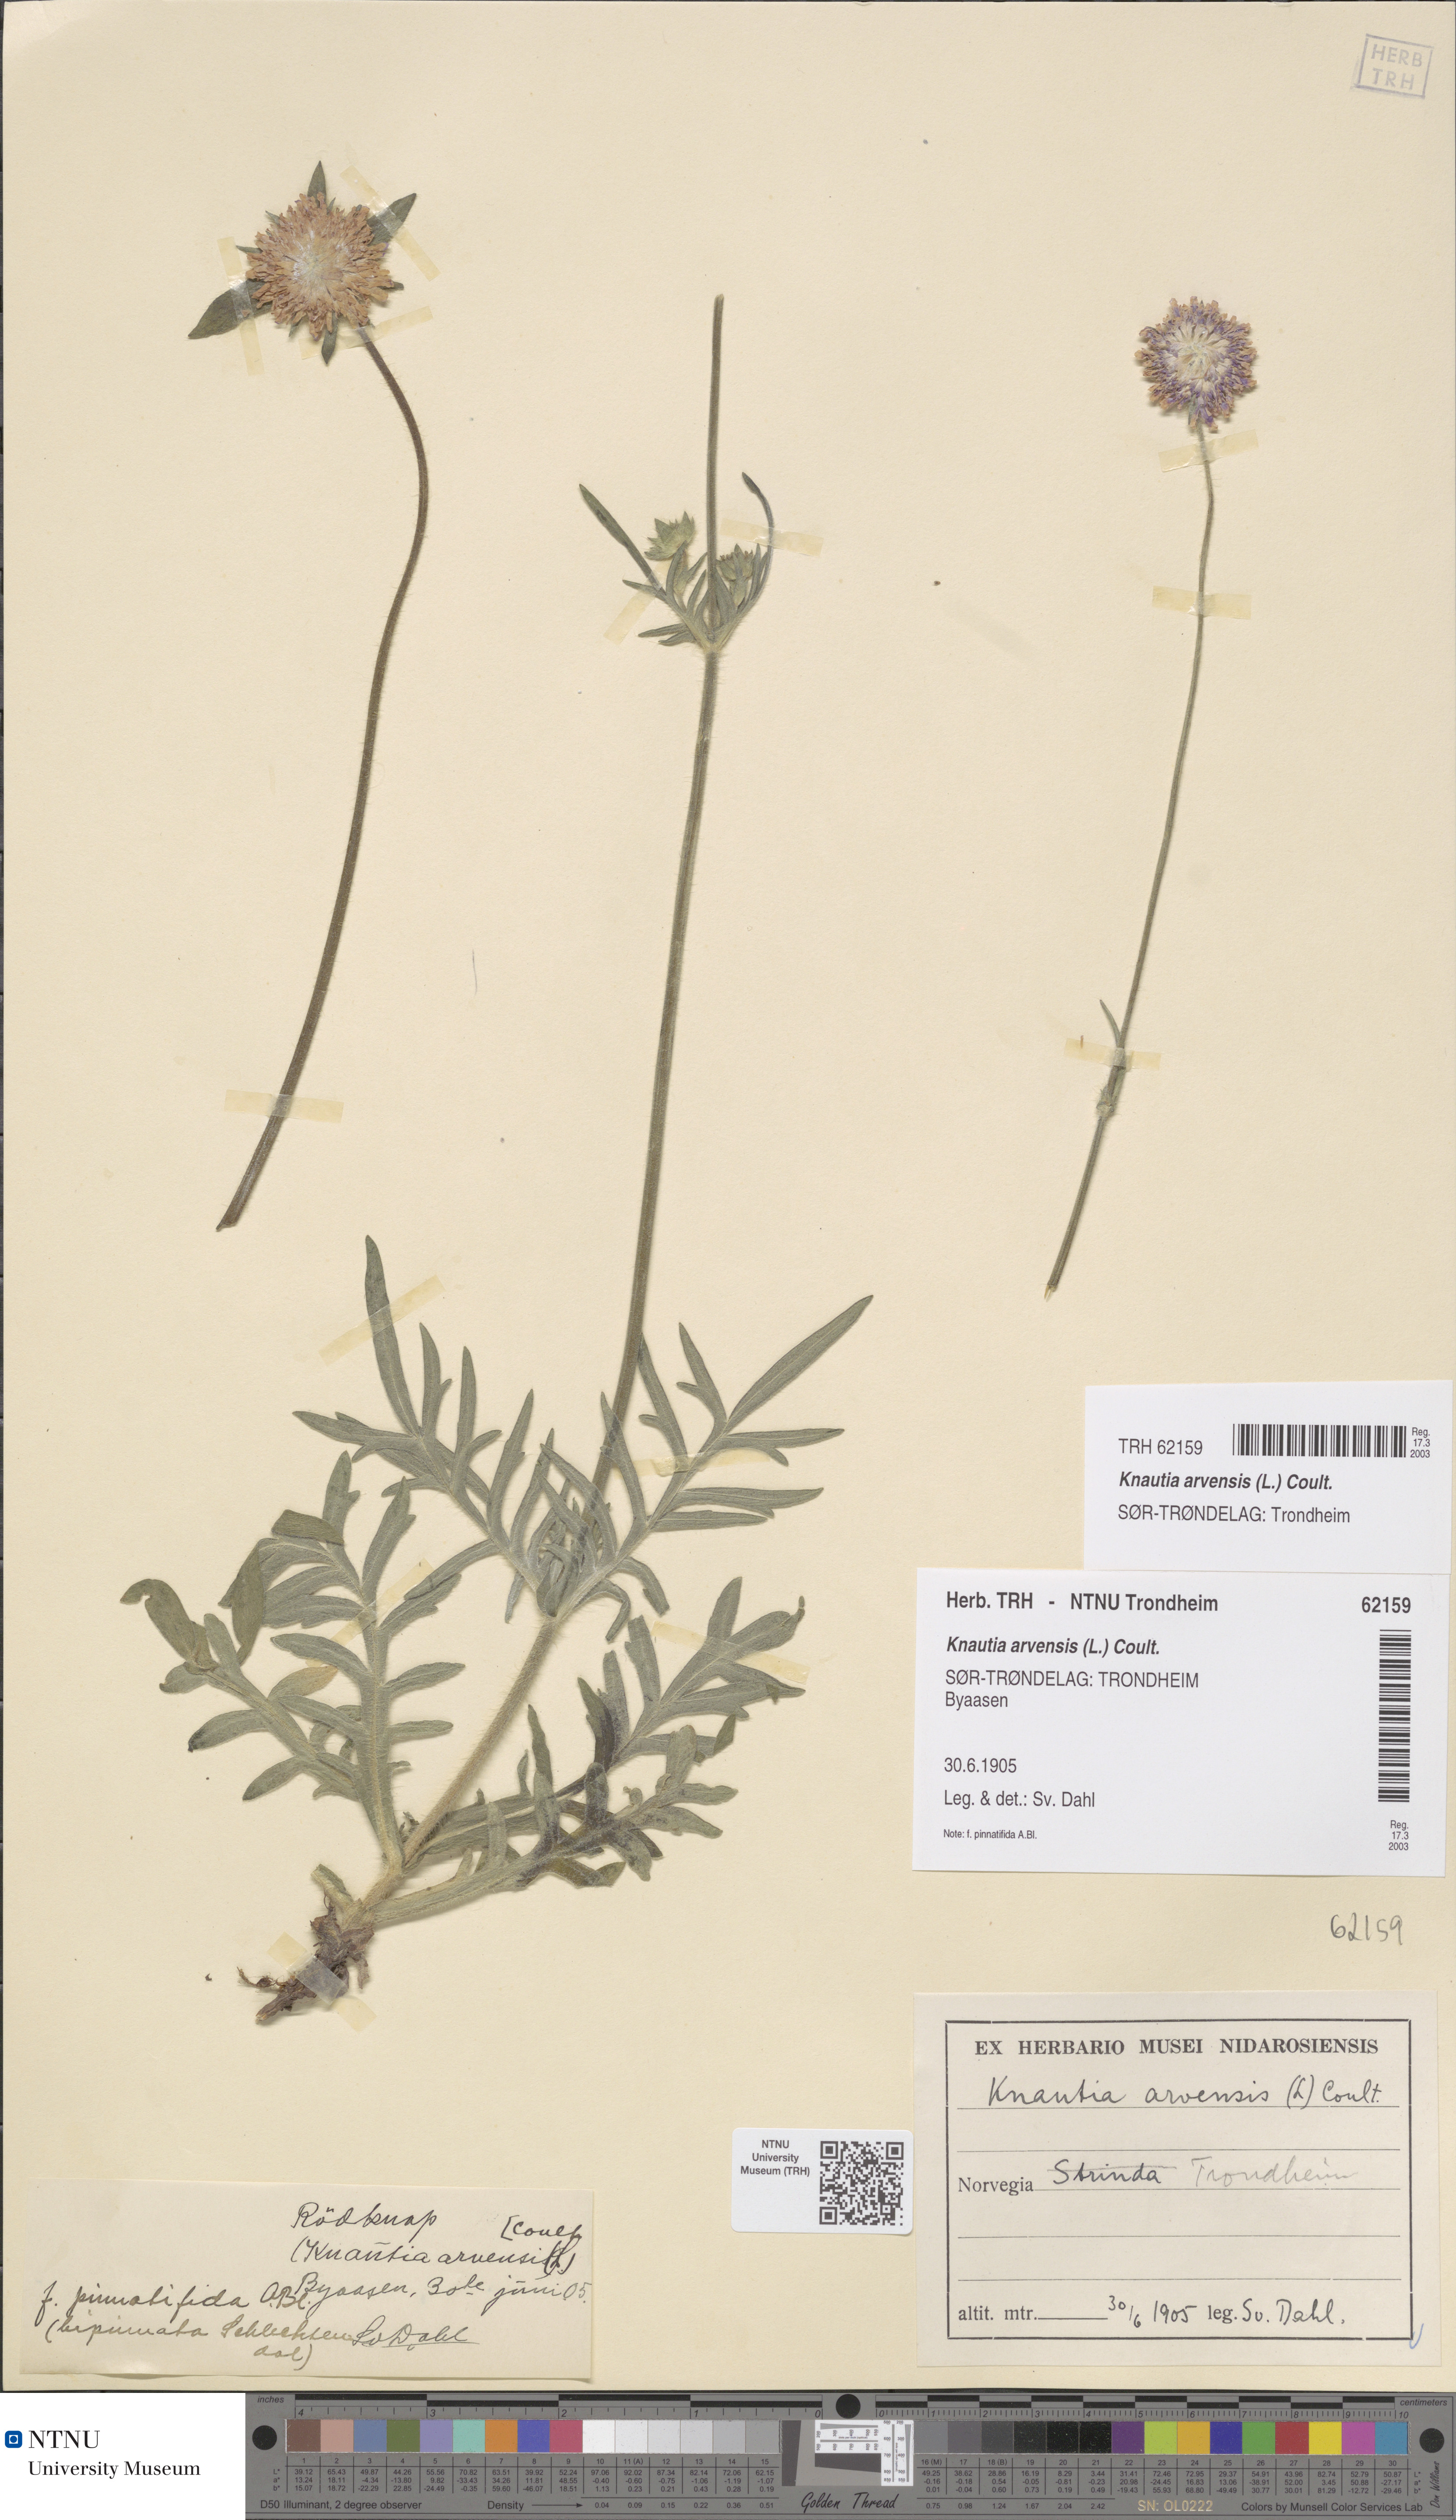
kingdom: Plantae
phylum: Tracheophyta
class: Magnoliopsida
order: Dipsacales
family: Caprifoliaceae
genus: Knautia
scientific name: Knautia arvensis
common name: Field scabiosa
